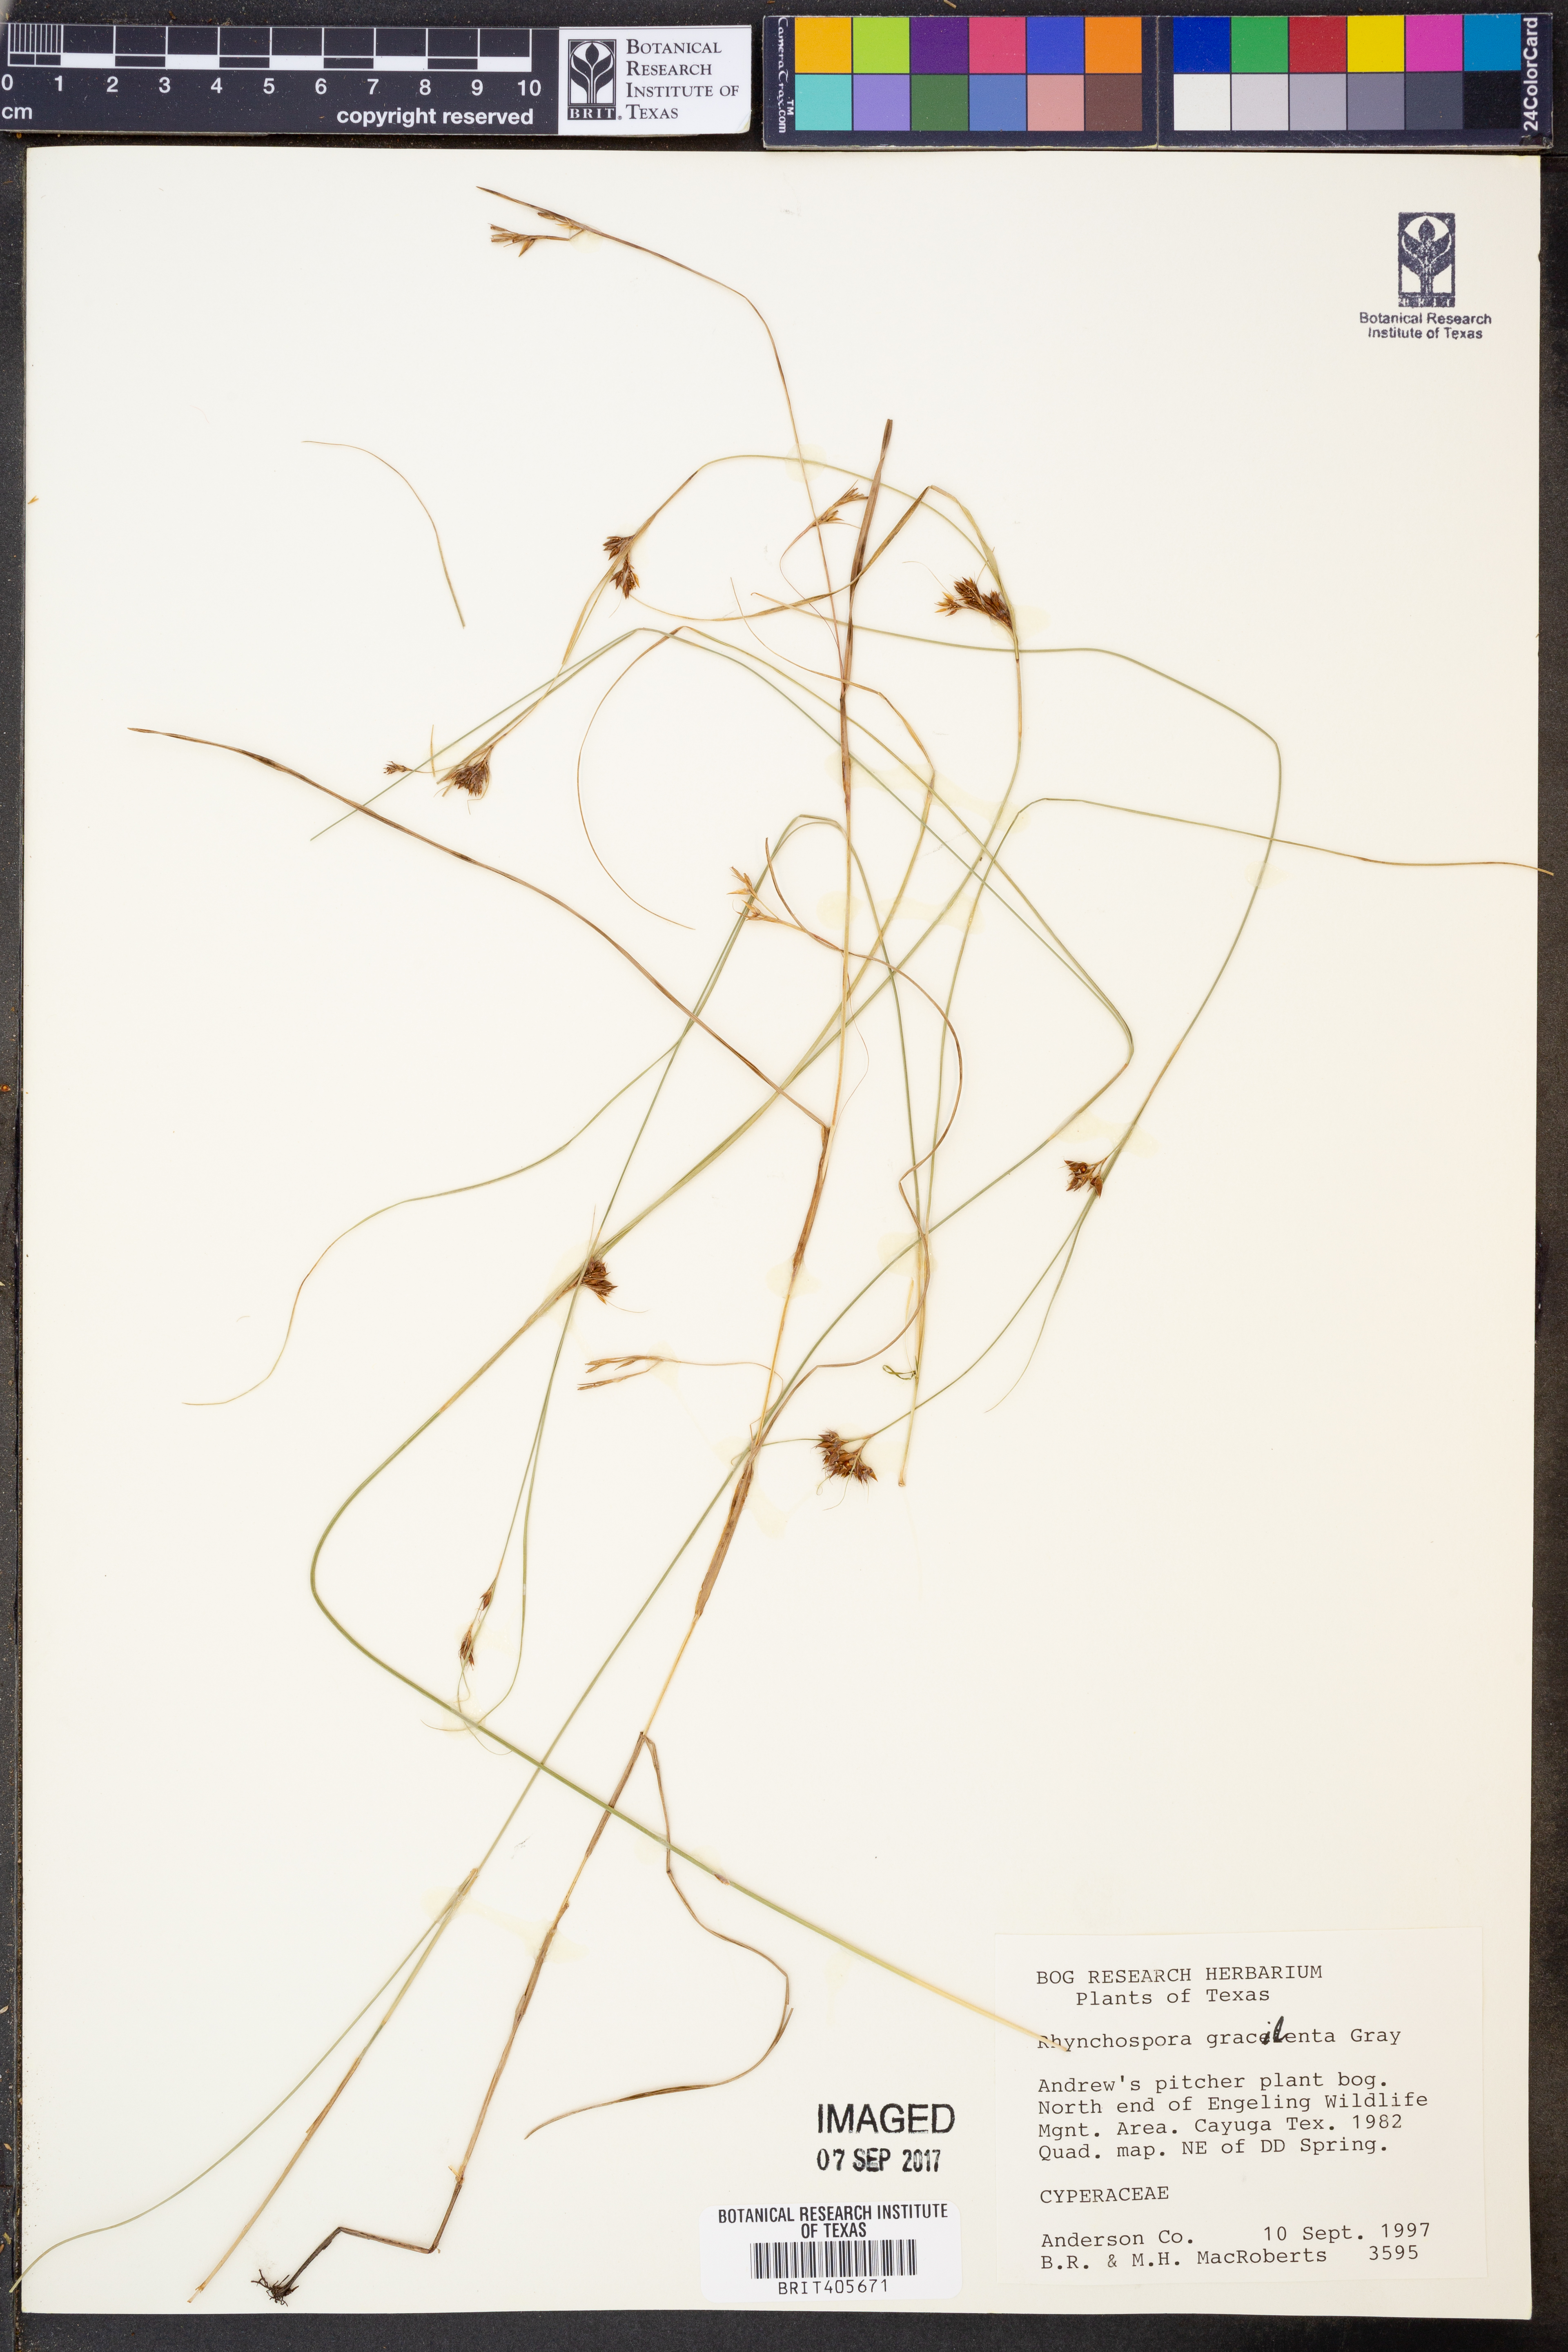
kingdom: Plantae
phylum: Tracheophyta
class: Liliopsida
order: Poales
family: Cyperaceae
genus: Rhynchospora
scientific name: Rhynchospora gracilenta
